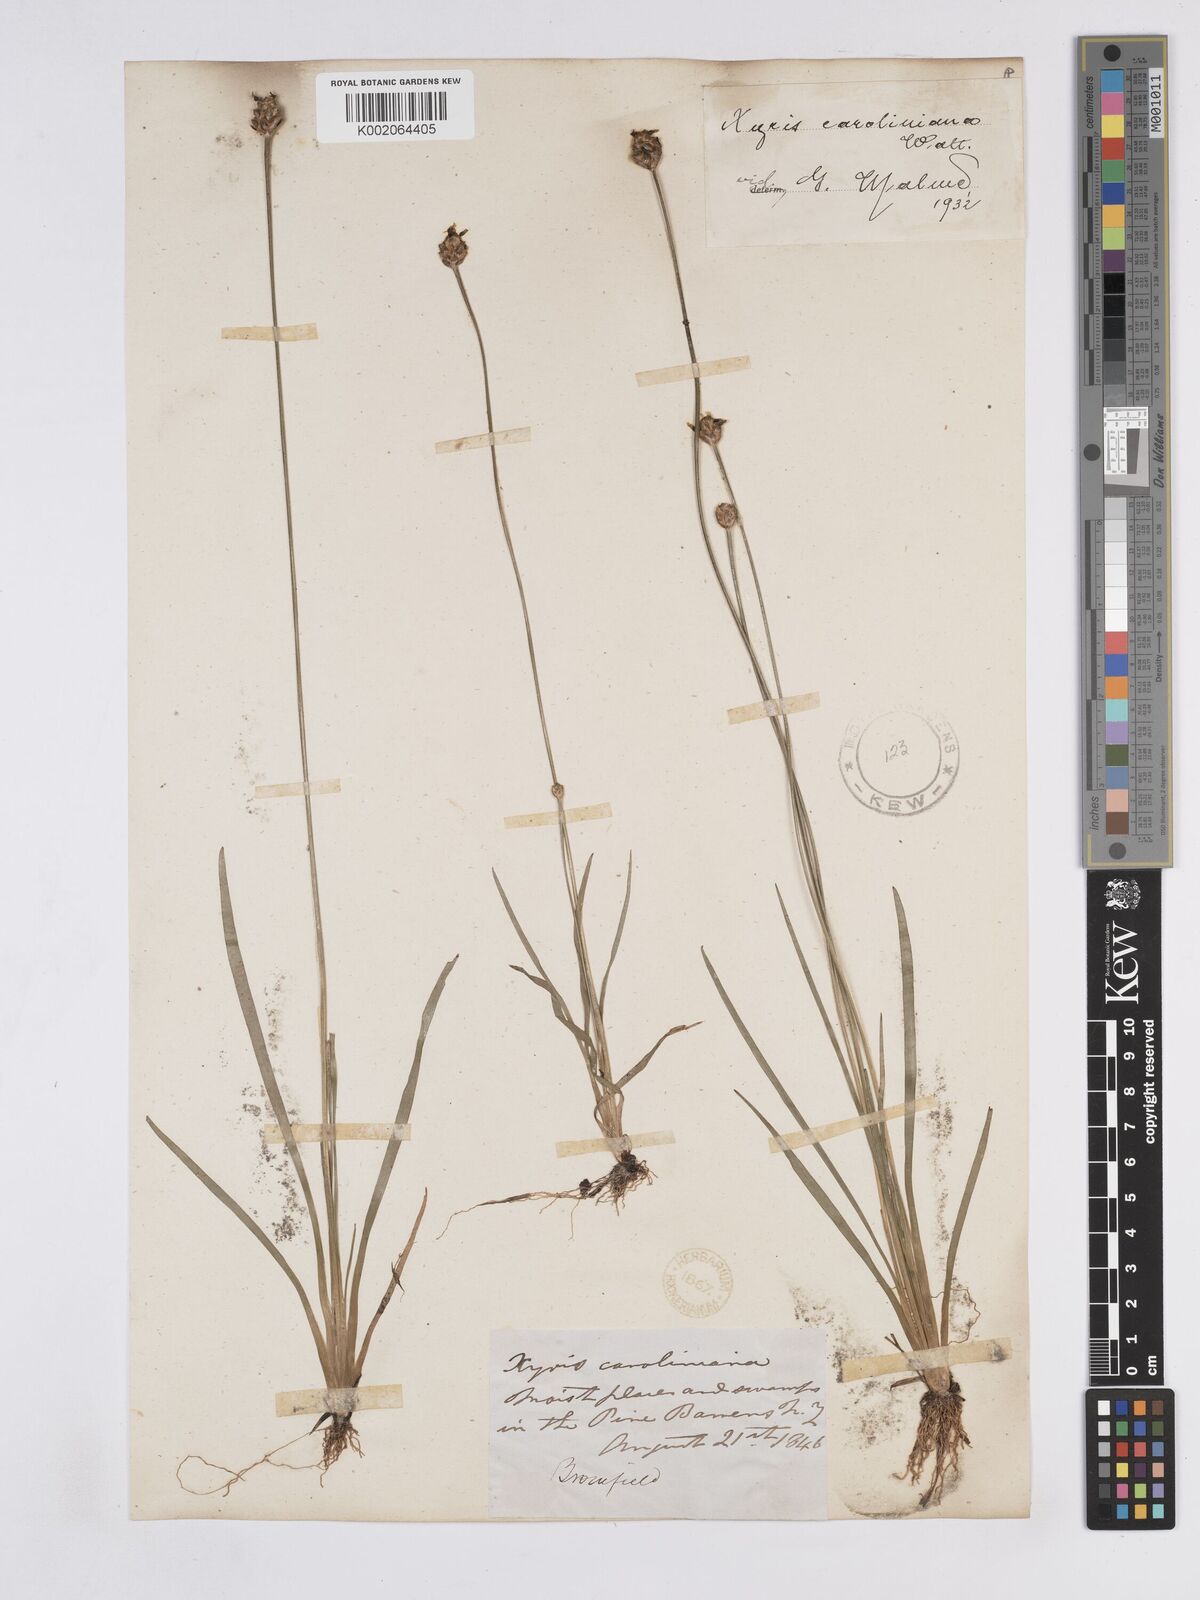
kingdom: Plantae
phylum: Tracheophyta
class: Liliopsida
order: Poales
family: Xyridaceae
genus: Xyris
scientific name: Xyris caroliniana
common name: Carolina yellow-eyed-grass
